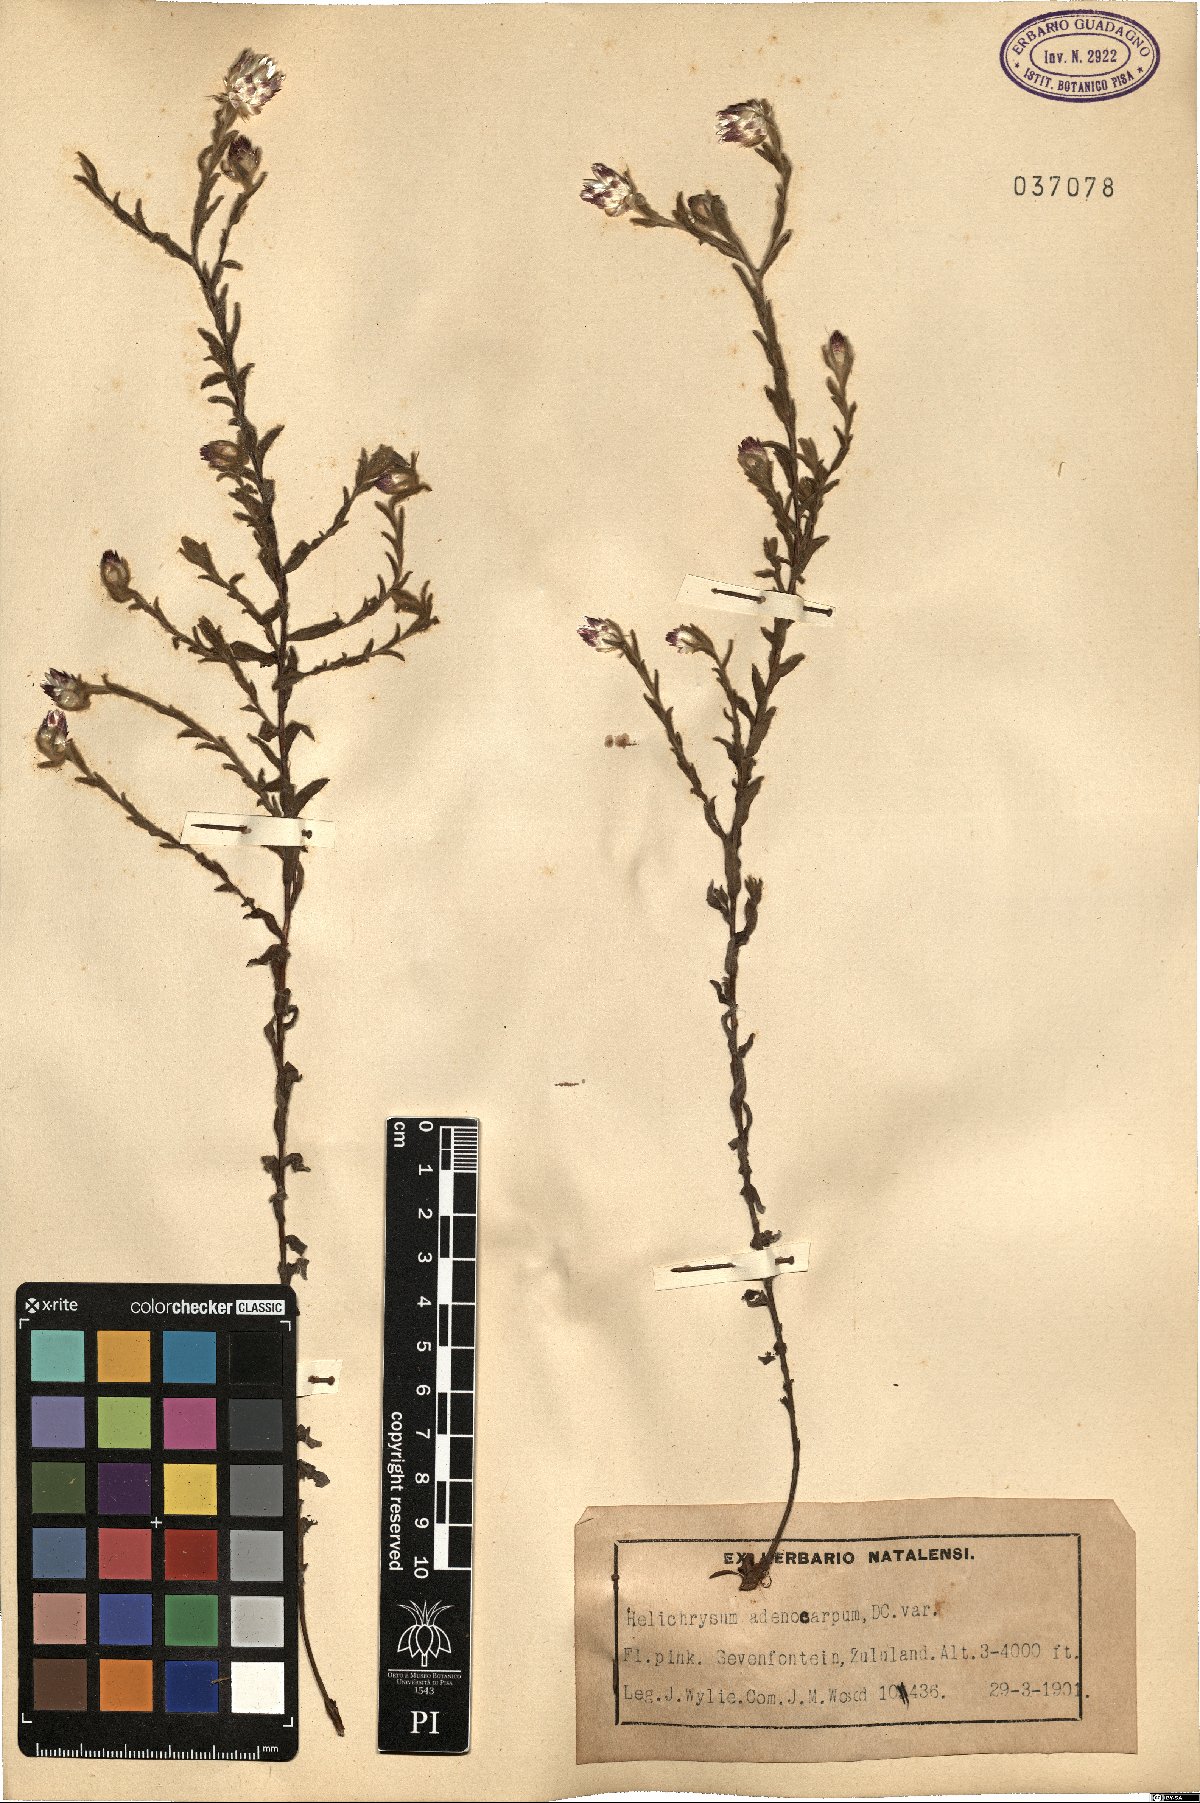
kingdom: Plantae
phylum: Tracheophyta
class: Magnoliopsida
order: Asterales
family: Asteraceae
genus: Helichrysum
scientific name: Helichrysum adenocarpum
